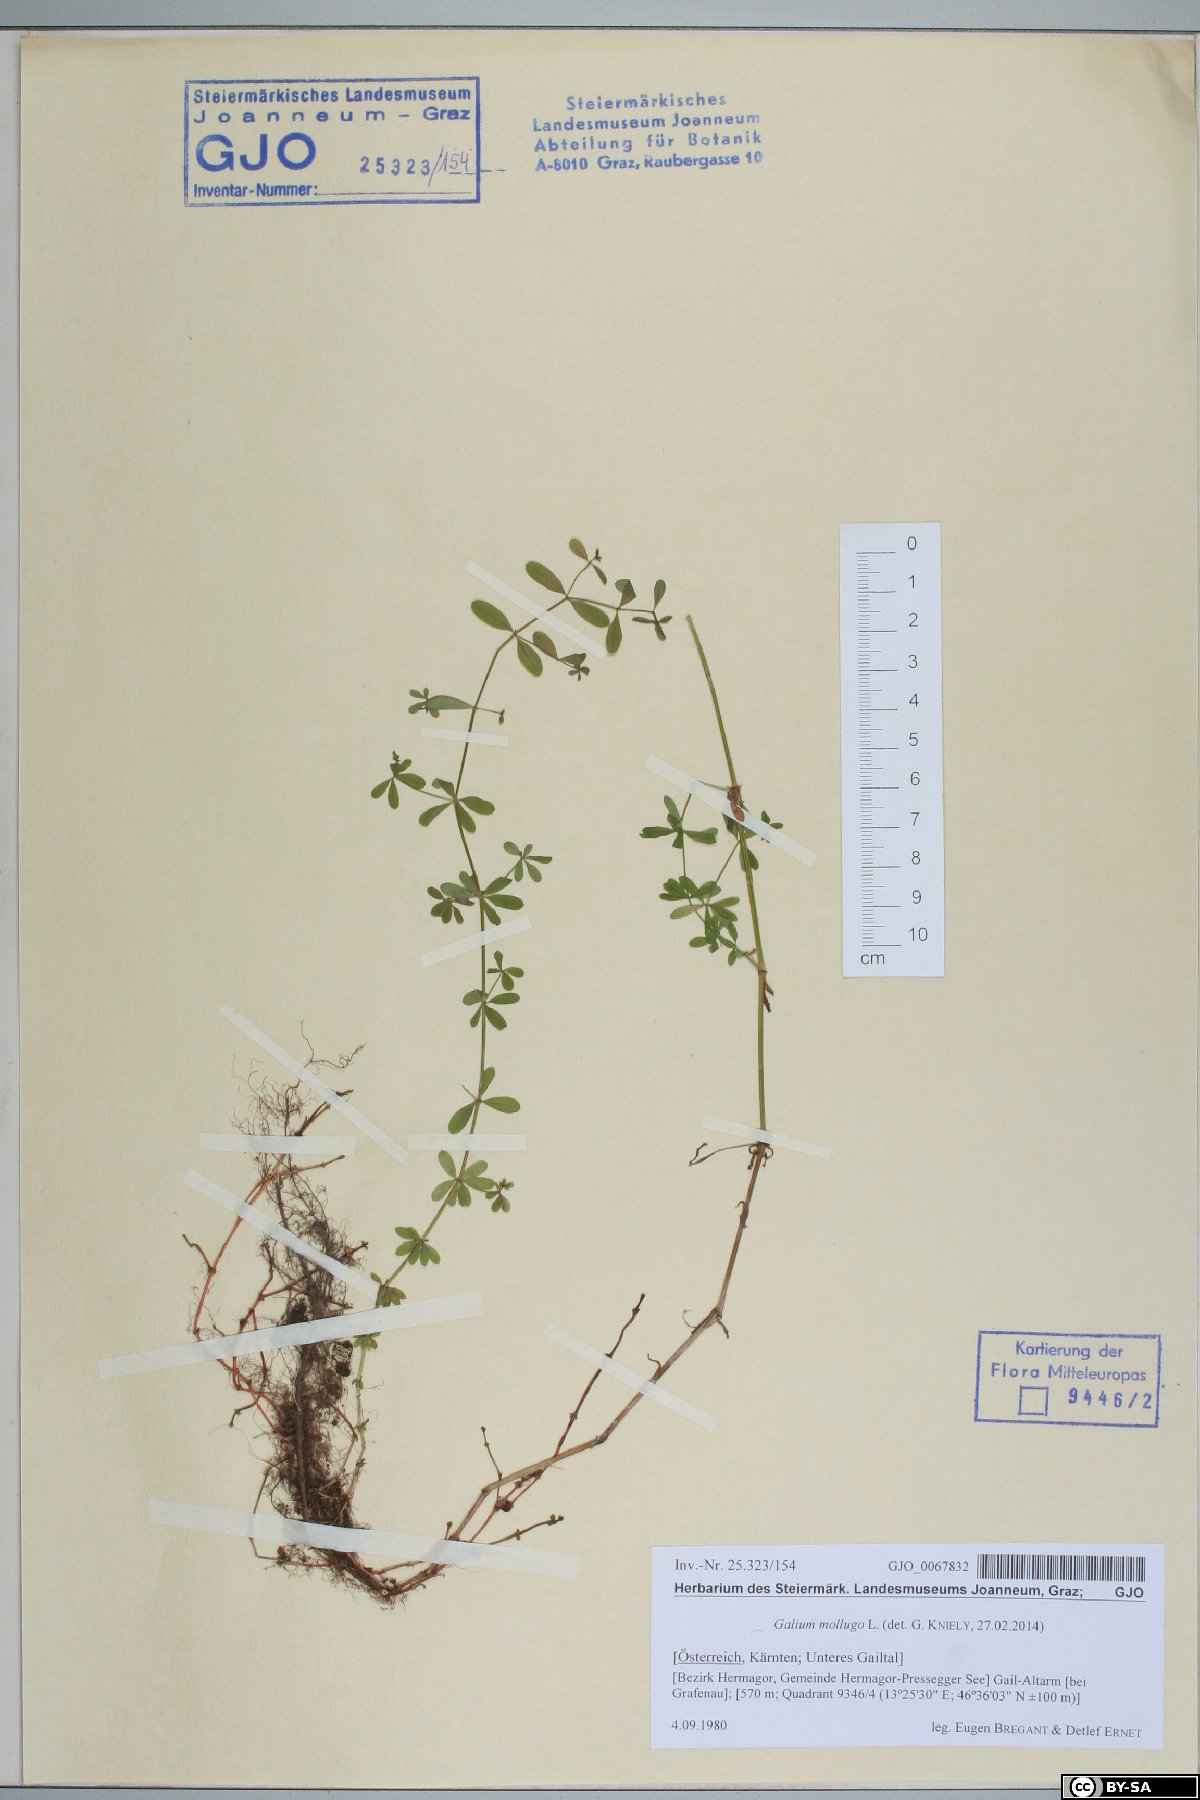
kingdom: Plantae
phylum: Tracheophyta
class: Magnoliopsida
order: Gentianales
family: Rubiaceae
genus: Galium
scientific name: Galium mollugo
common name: Hedge bedstraw
